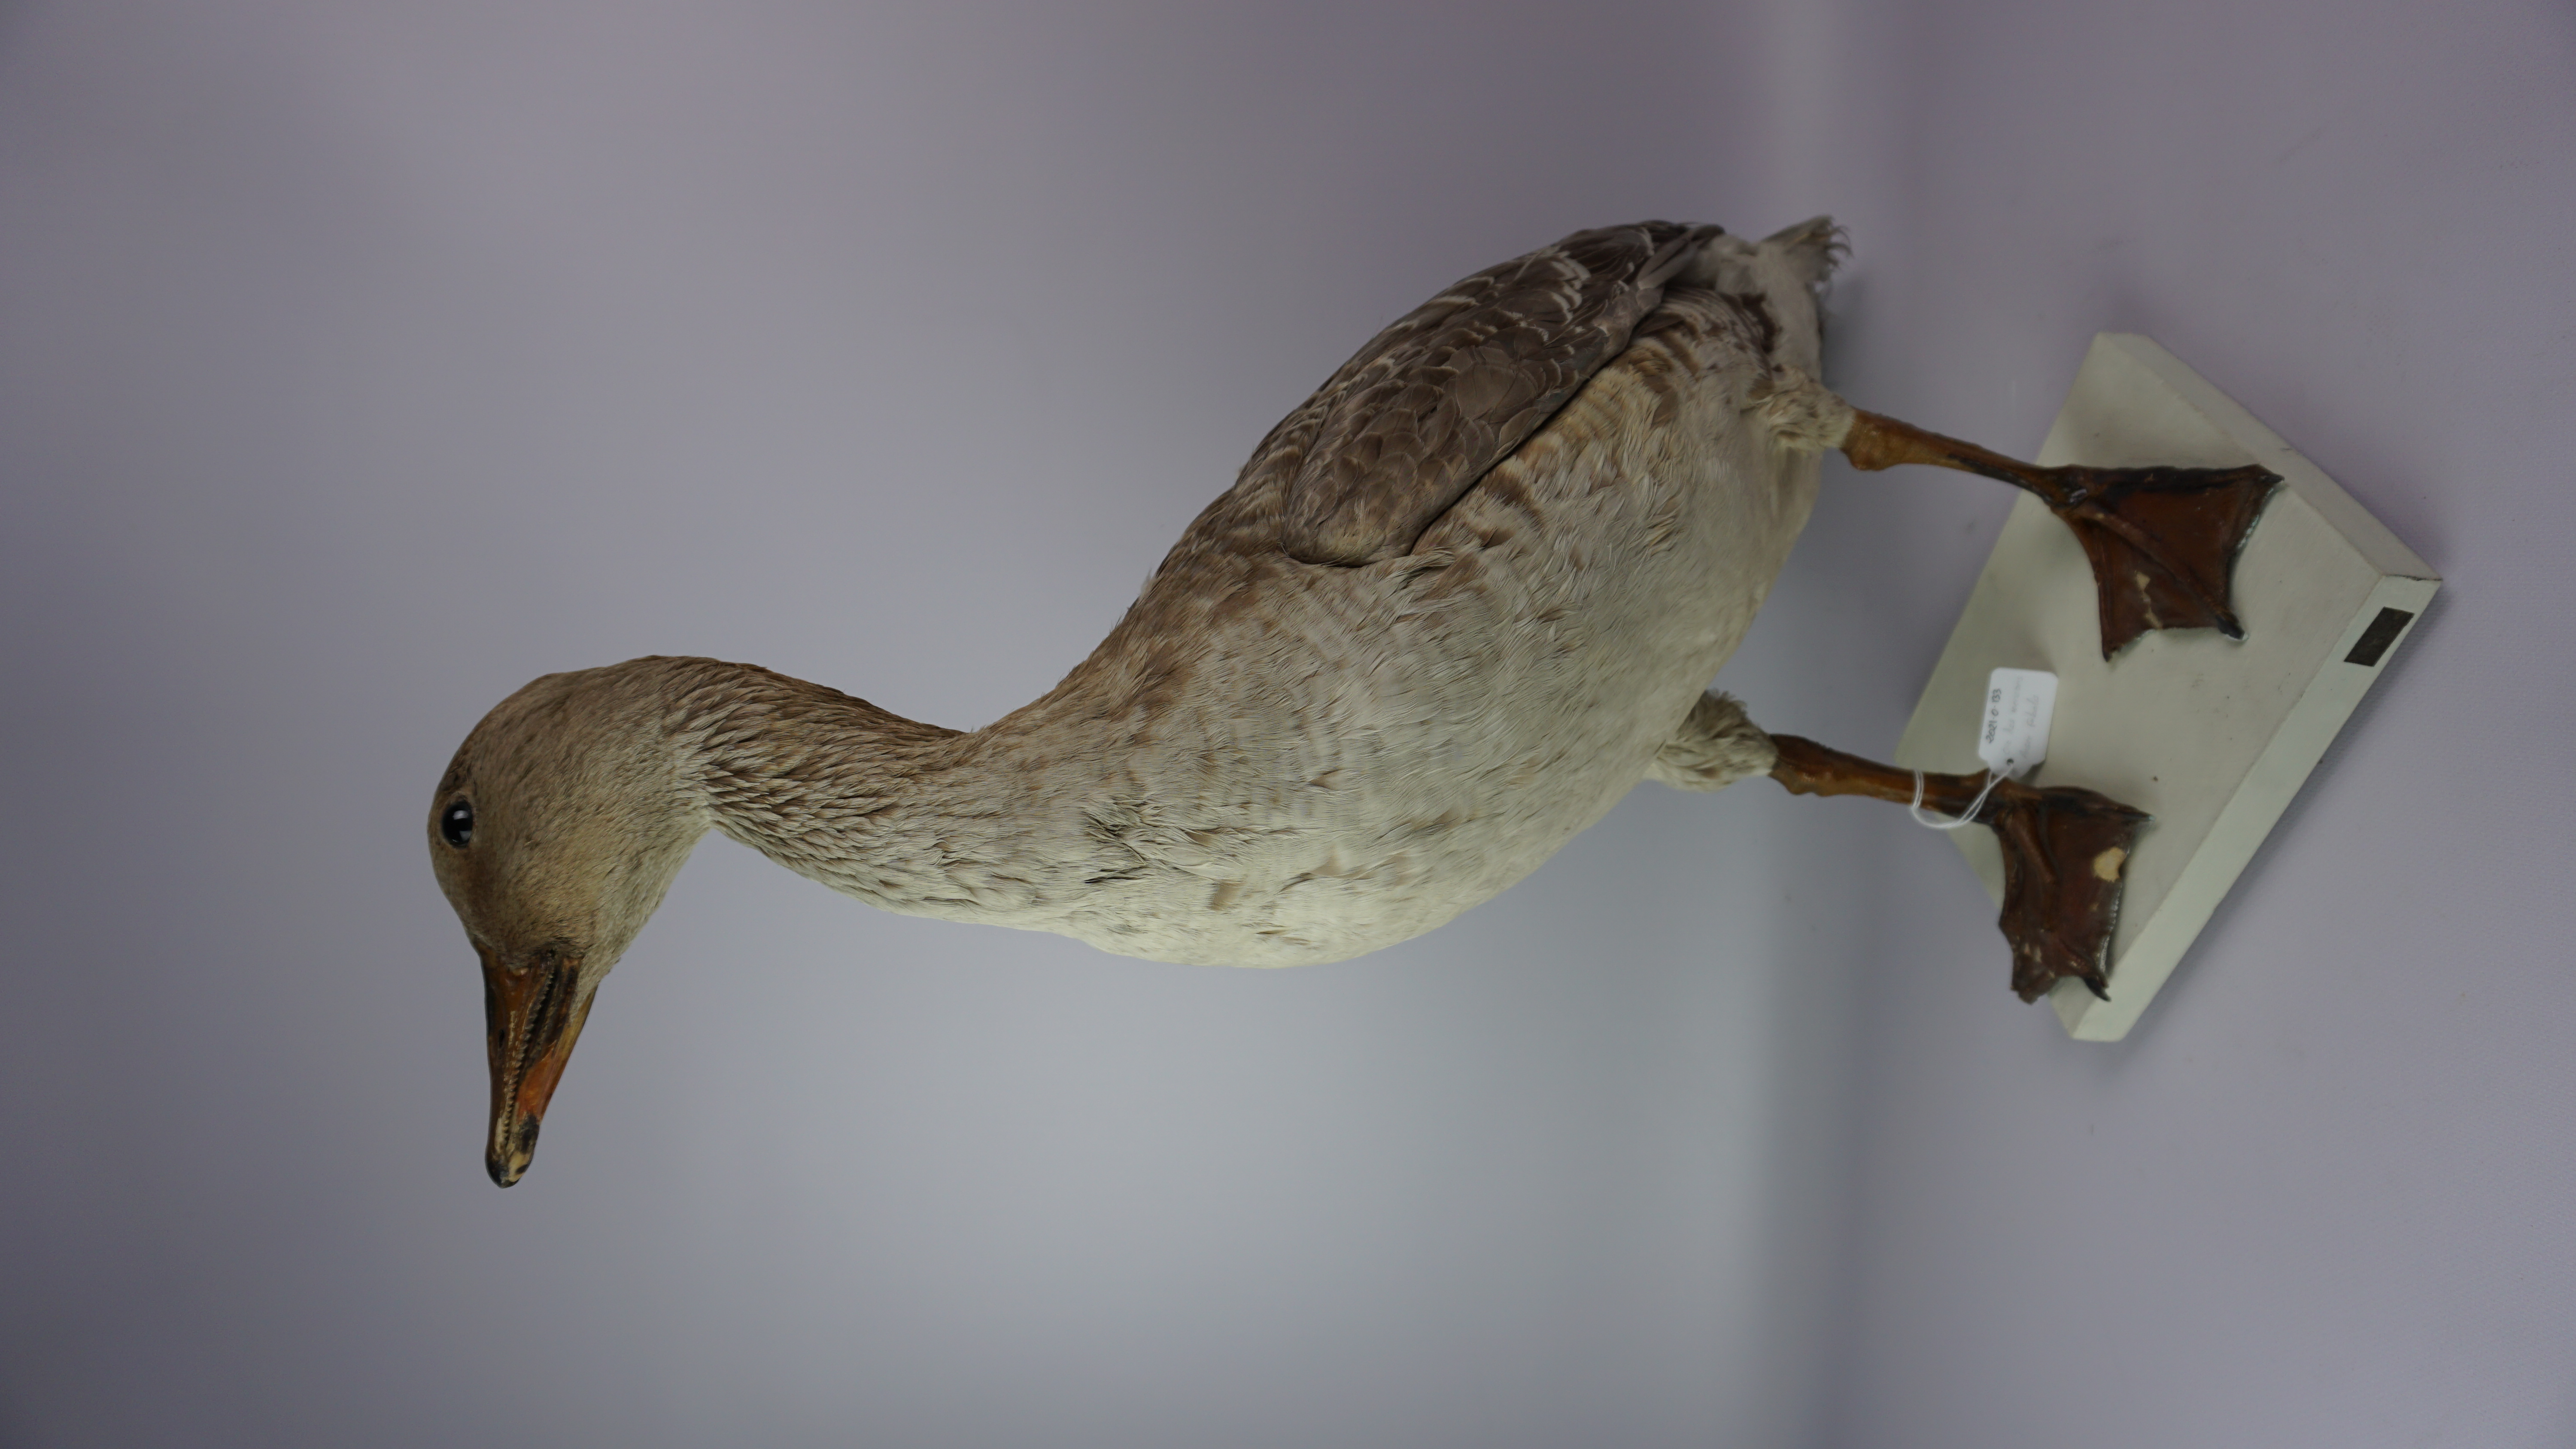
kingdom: Animalia
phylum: Chordata
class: Aves
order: Anseriformes
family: Anatidae
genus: Anser
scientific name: Anser fabalis
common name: Bean goose
